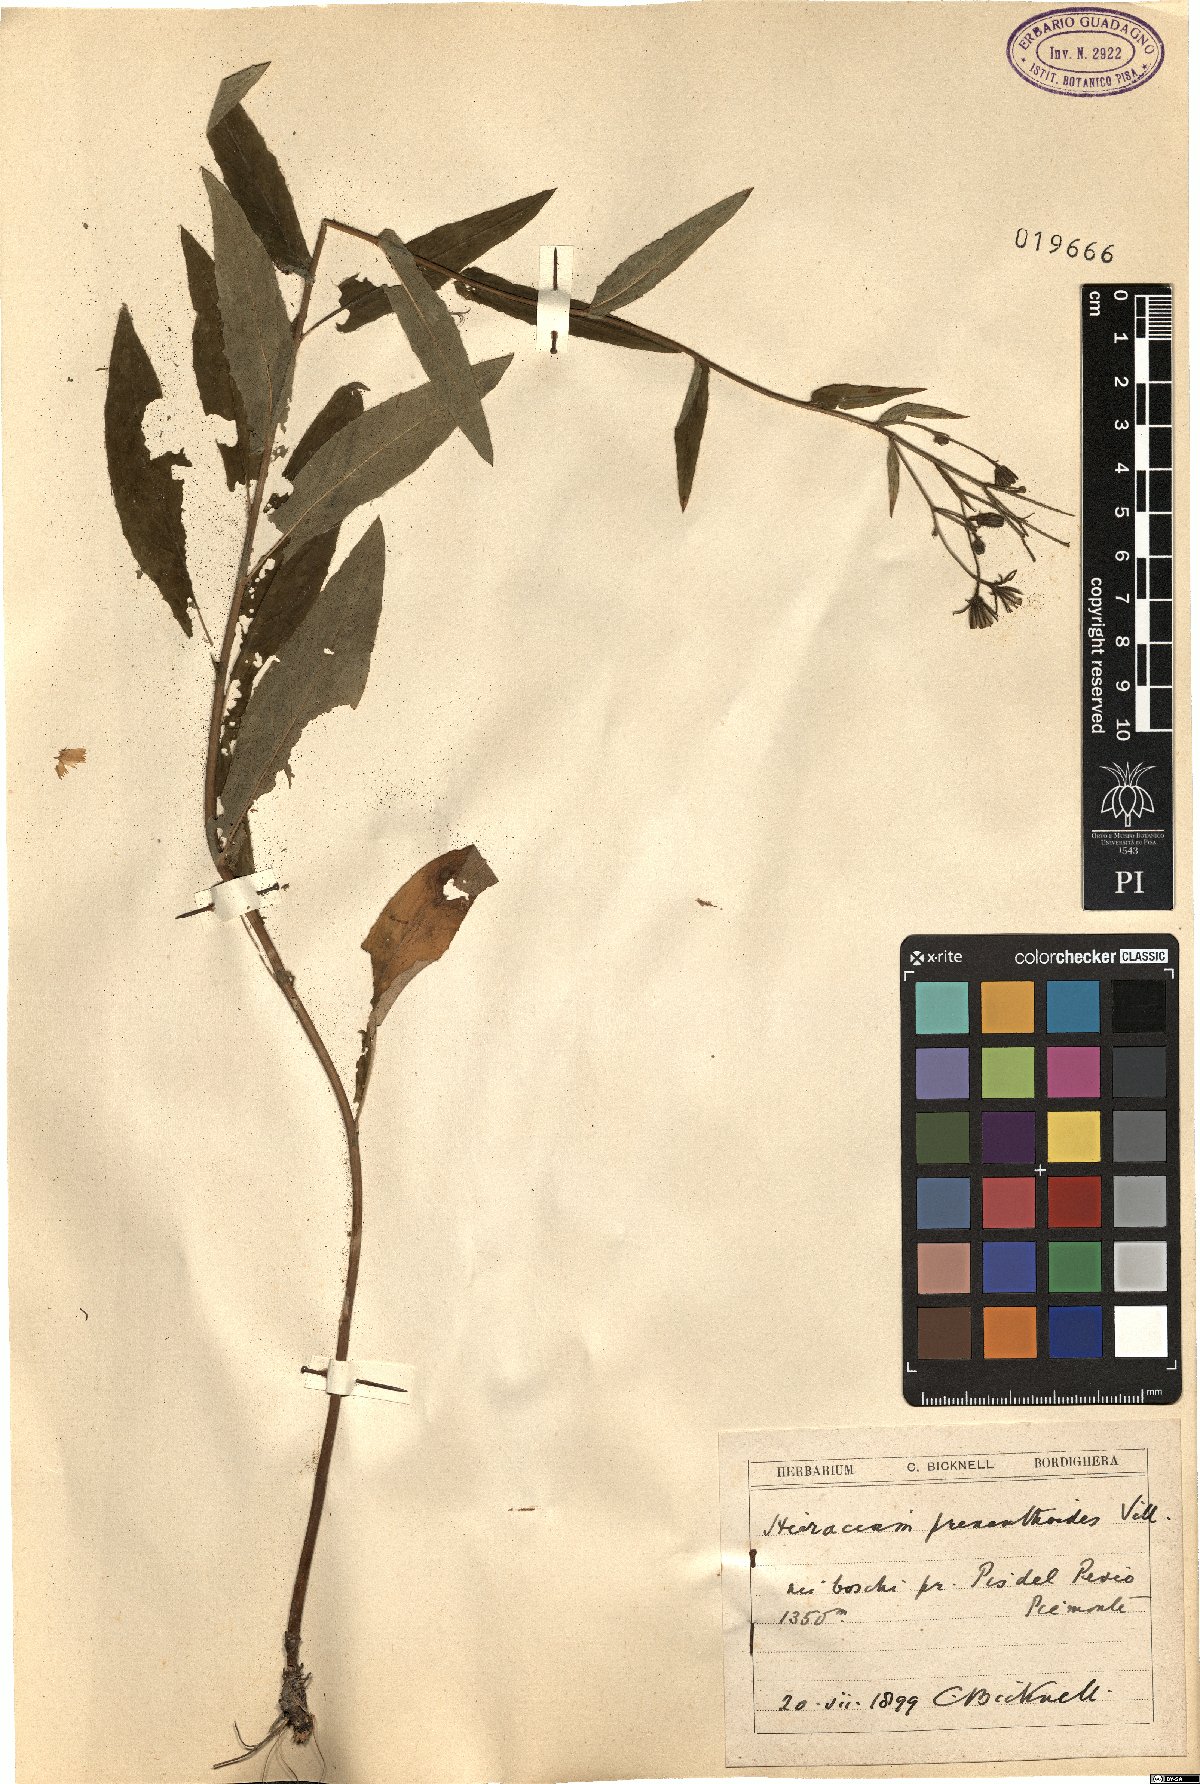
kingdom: Plantae
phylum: Tracheophyta
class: Magnoliopsida
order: Asterales
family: Asteraceae
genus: Hieracium
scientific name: Hieracium prenanthoides
